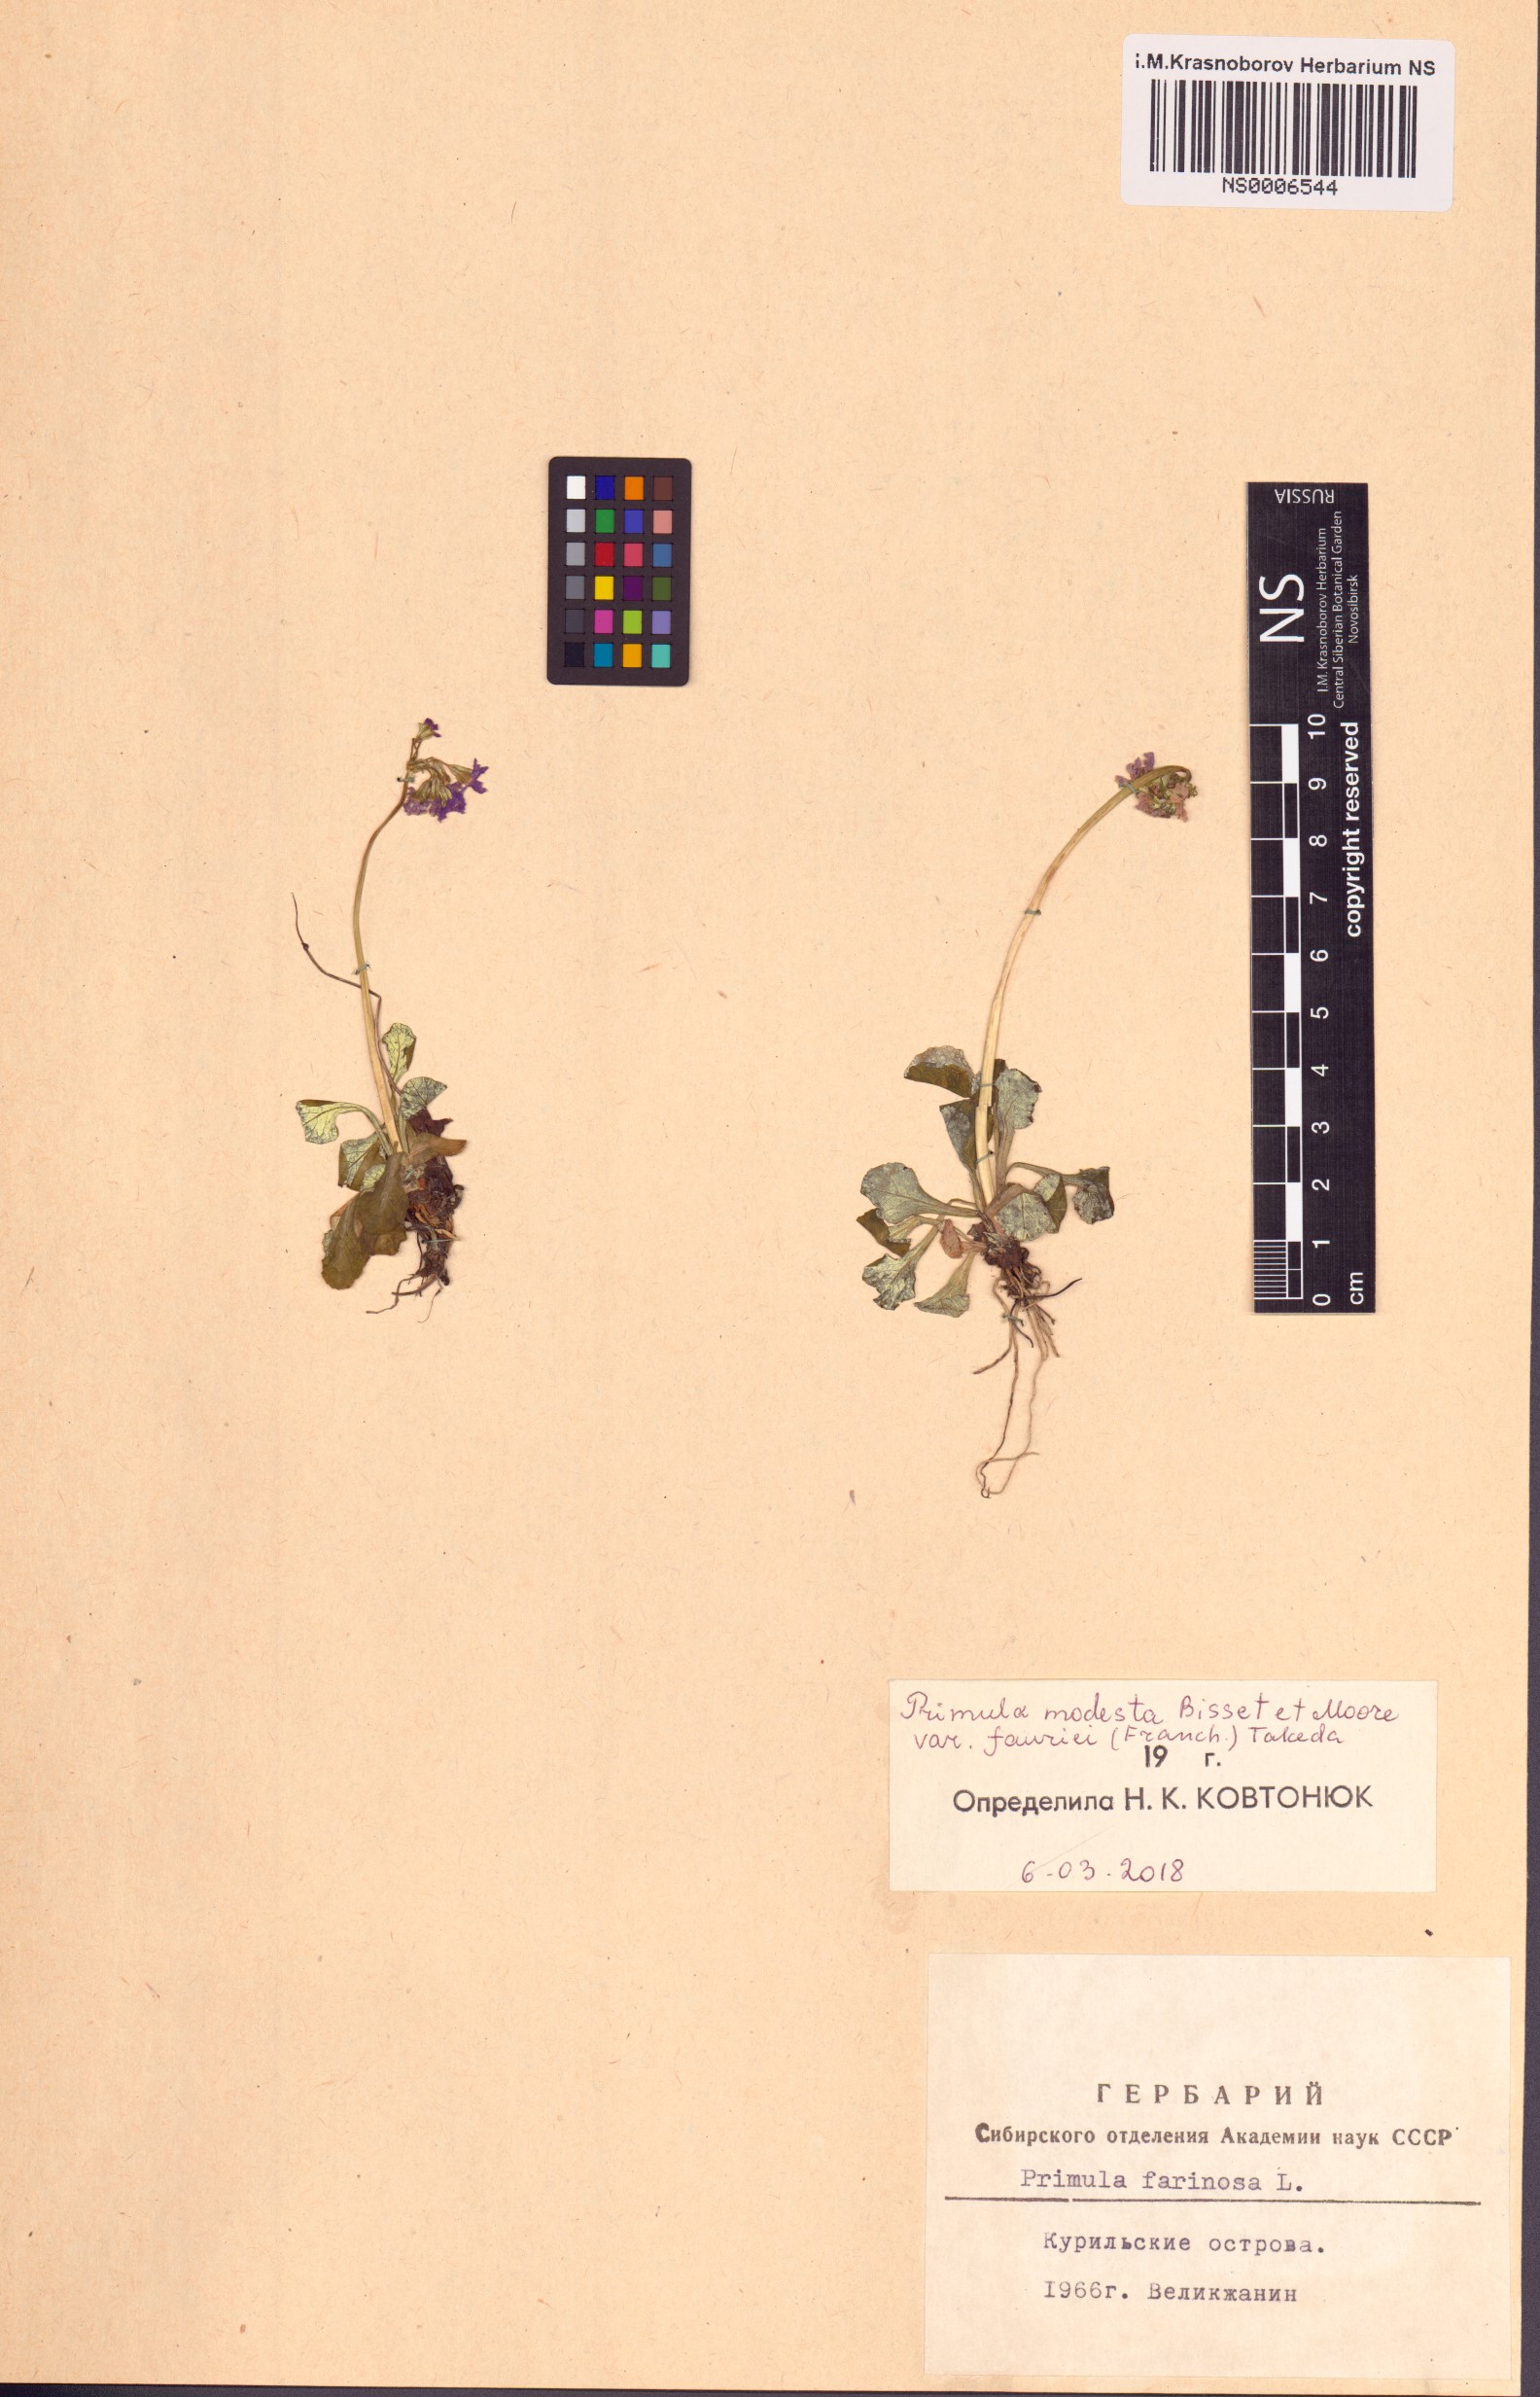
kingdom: Plantae
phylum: Tracheophyta
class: Magnoliopsida
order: Ericales
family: Primulaceae
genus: Primula
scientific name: Primula modesta
